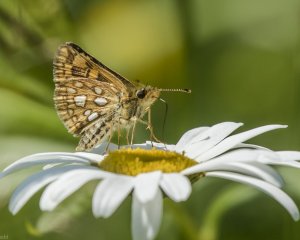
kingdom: Animalia
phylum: Arthropoda
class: Insecta
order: Lepidoptera
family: Hesperiidae
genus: Carterocephalus
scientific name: Carterocephalus palaemon
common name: Chequered Skipper
